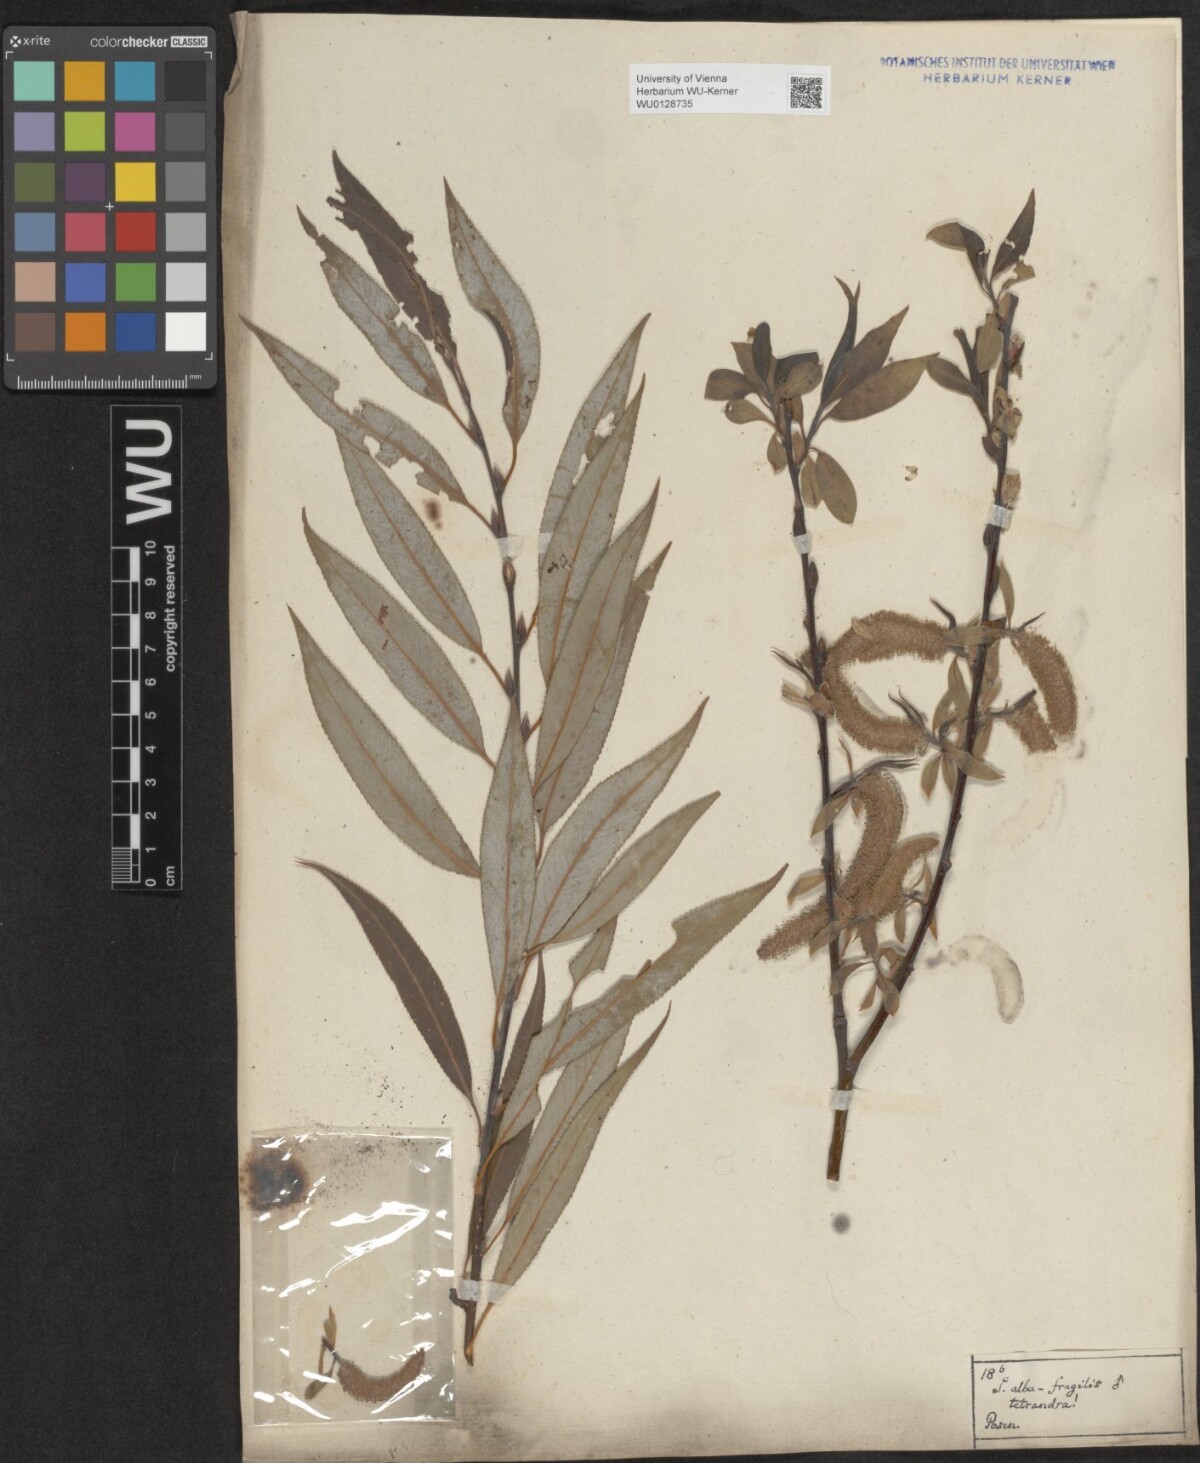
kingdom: Plantae
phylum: Tracheophyta
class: Magnoliopsida
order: Malpighiales
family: Salicaceae
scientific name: Salicaceae
